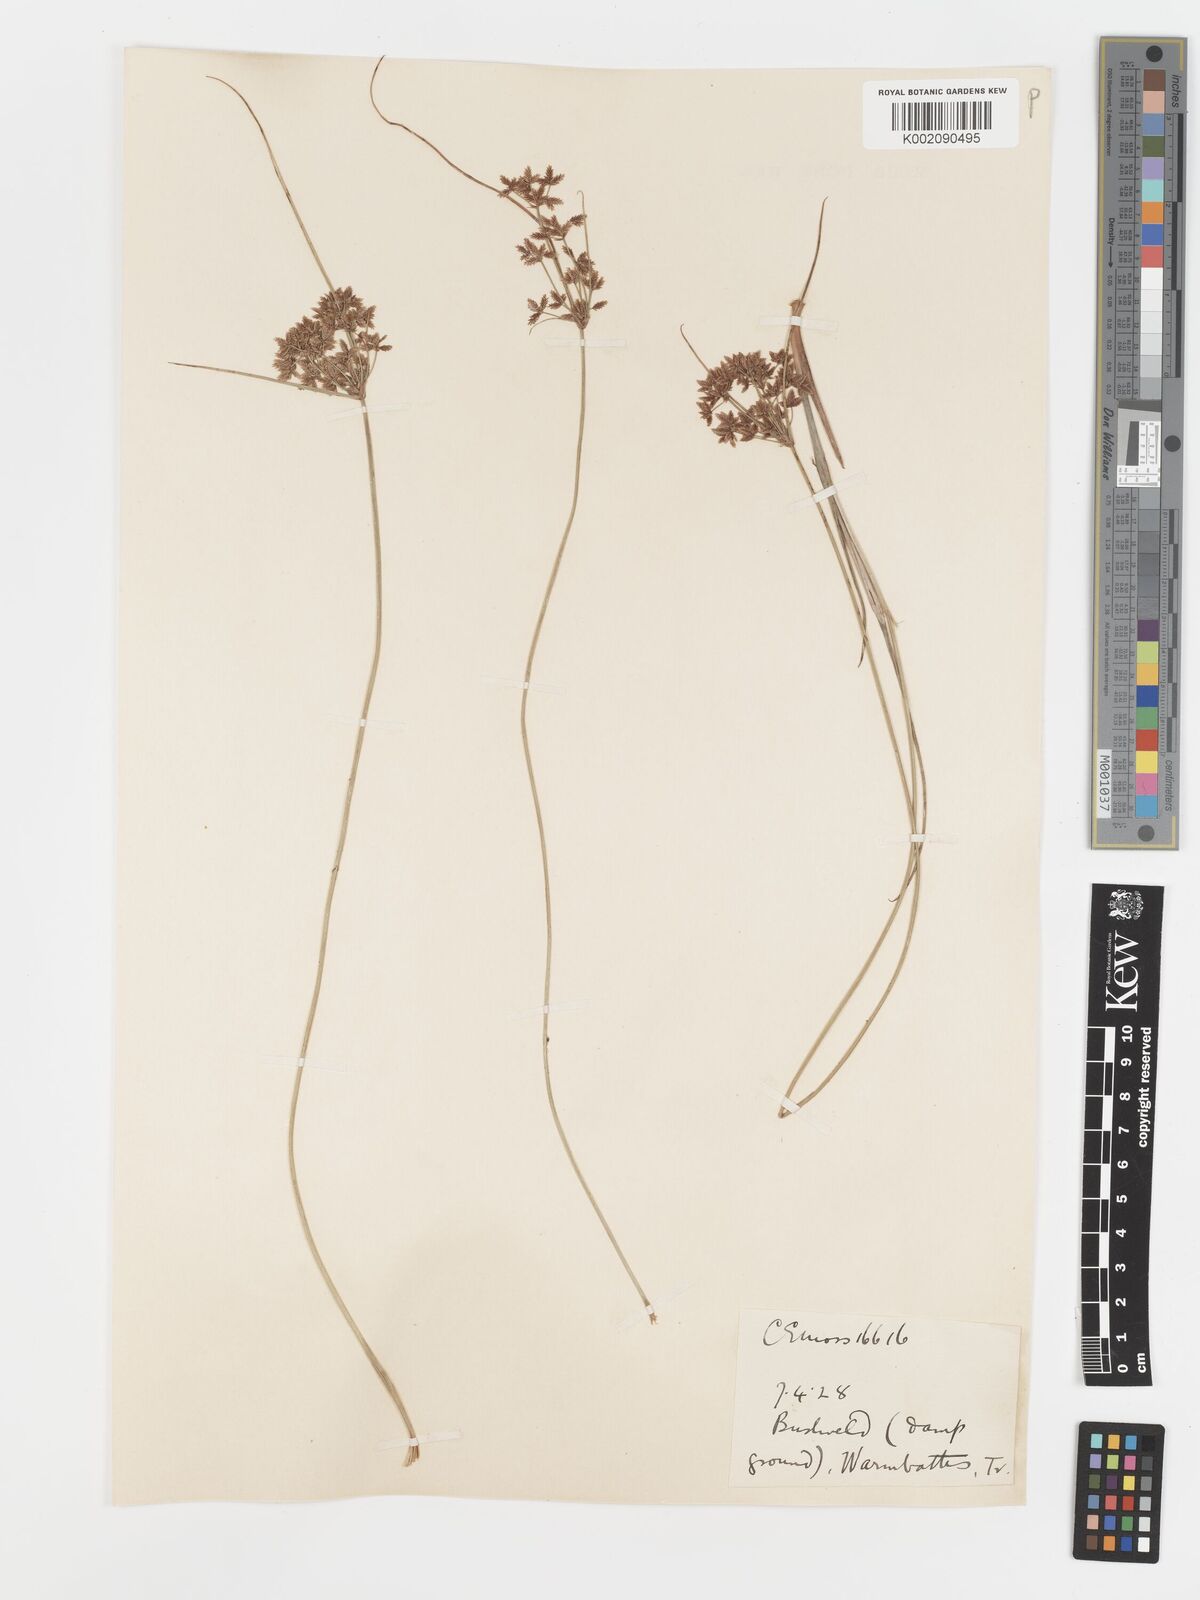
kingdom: Plantae
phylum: Tracheophyta
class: Liliopsida
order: Poales
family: Cyperaceae
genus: Cyperus
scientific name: Cyperus sphaerospermus
